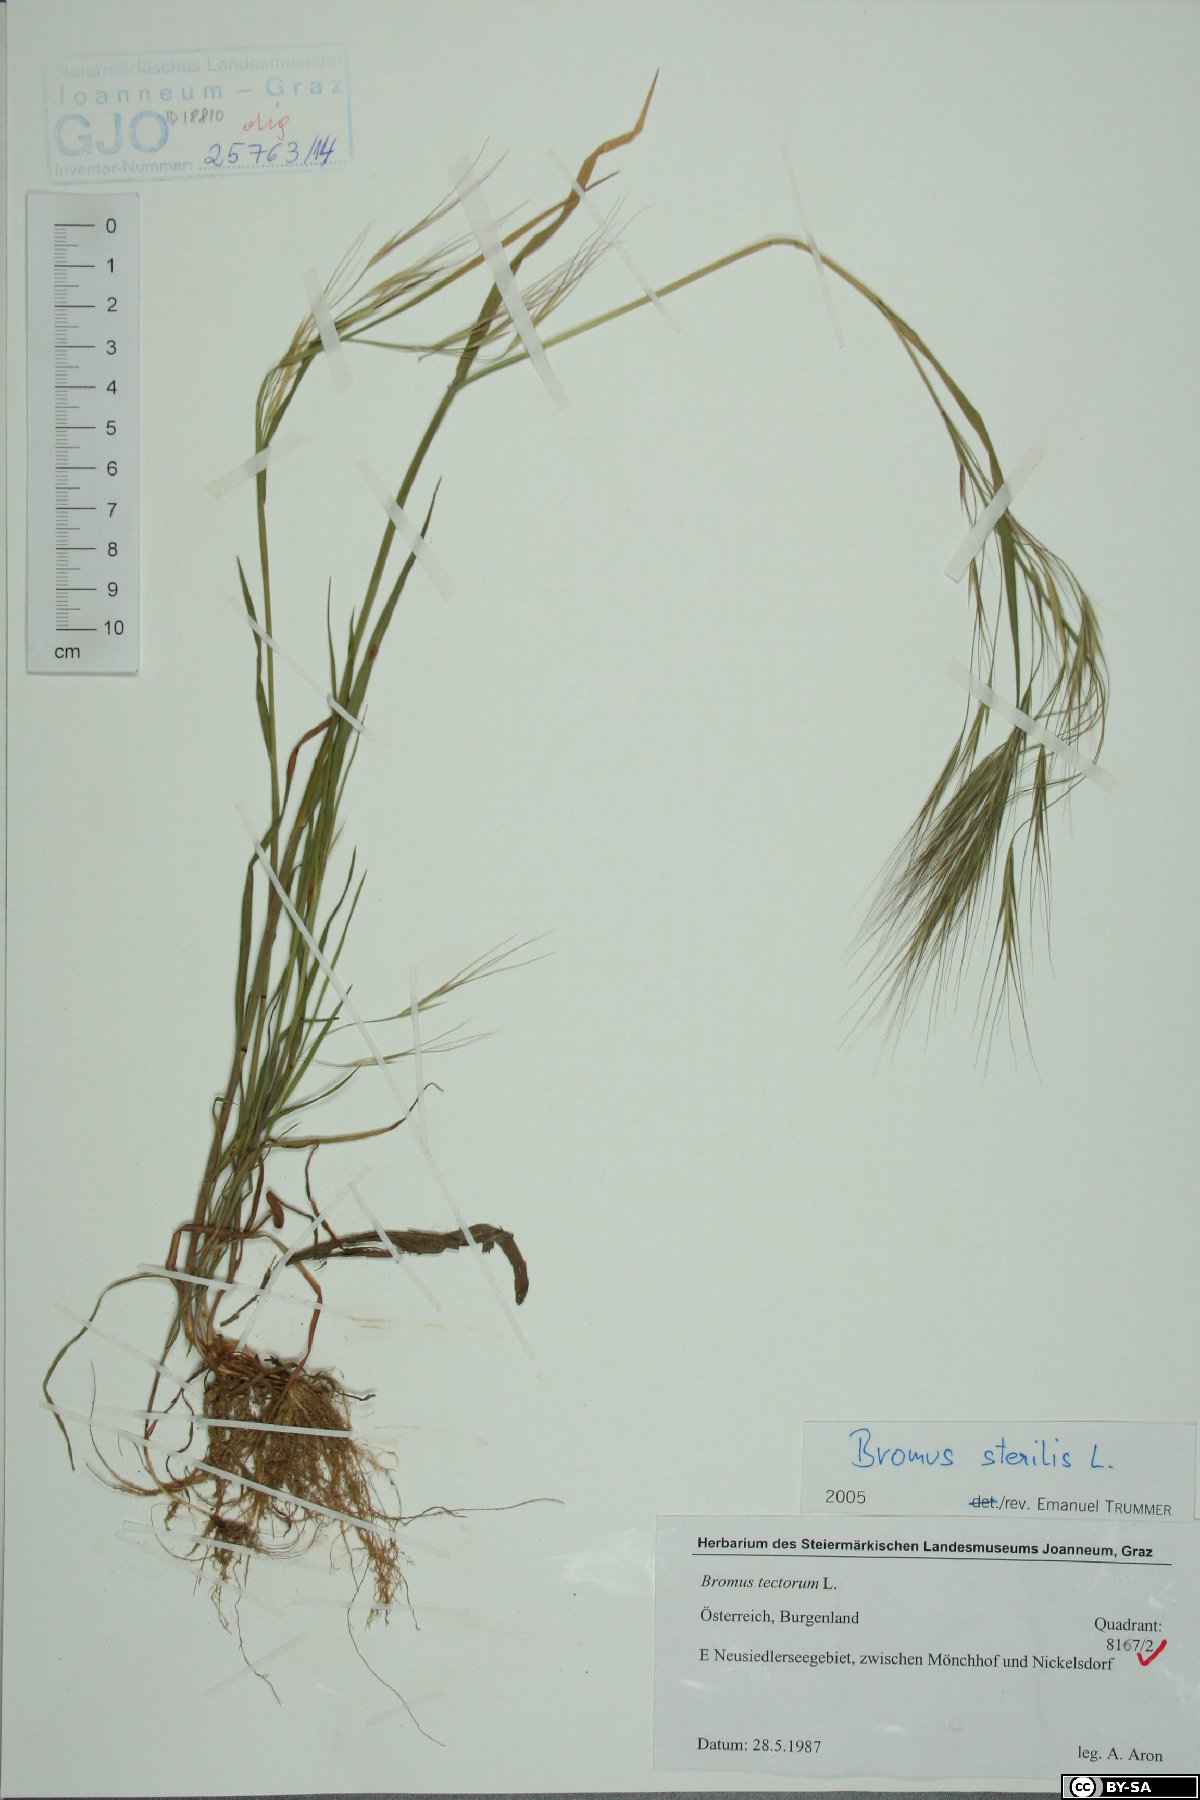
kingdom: Plantae
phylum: Tracheophyta
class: Liliopsida
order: Poales
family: Poaceae
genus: Bromus
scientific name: Bromus sterilis
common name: Poverty brome
